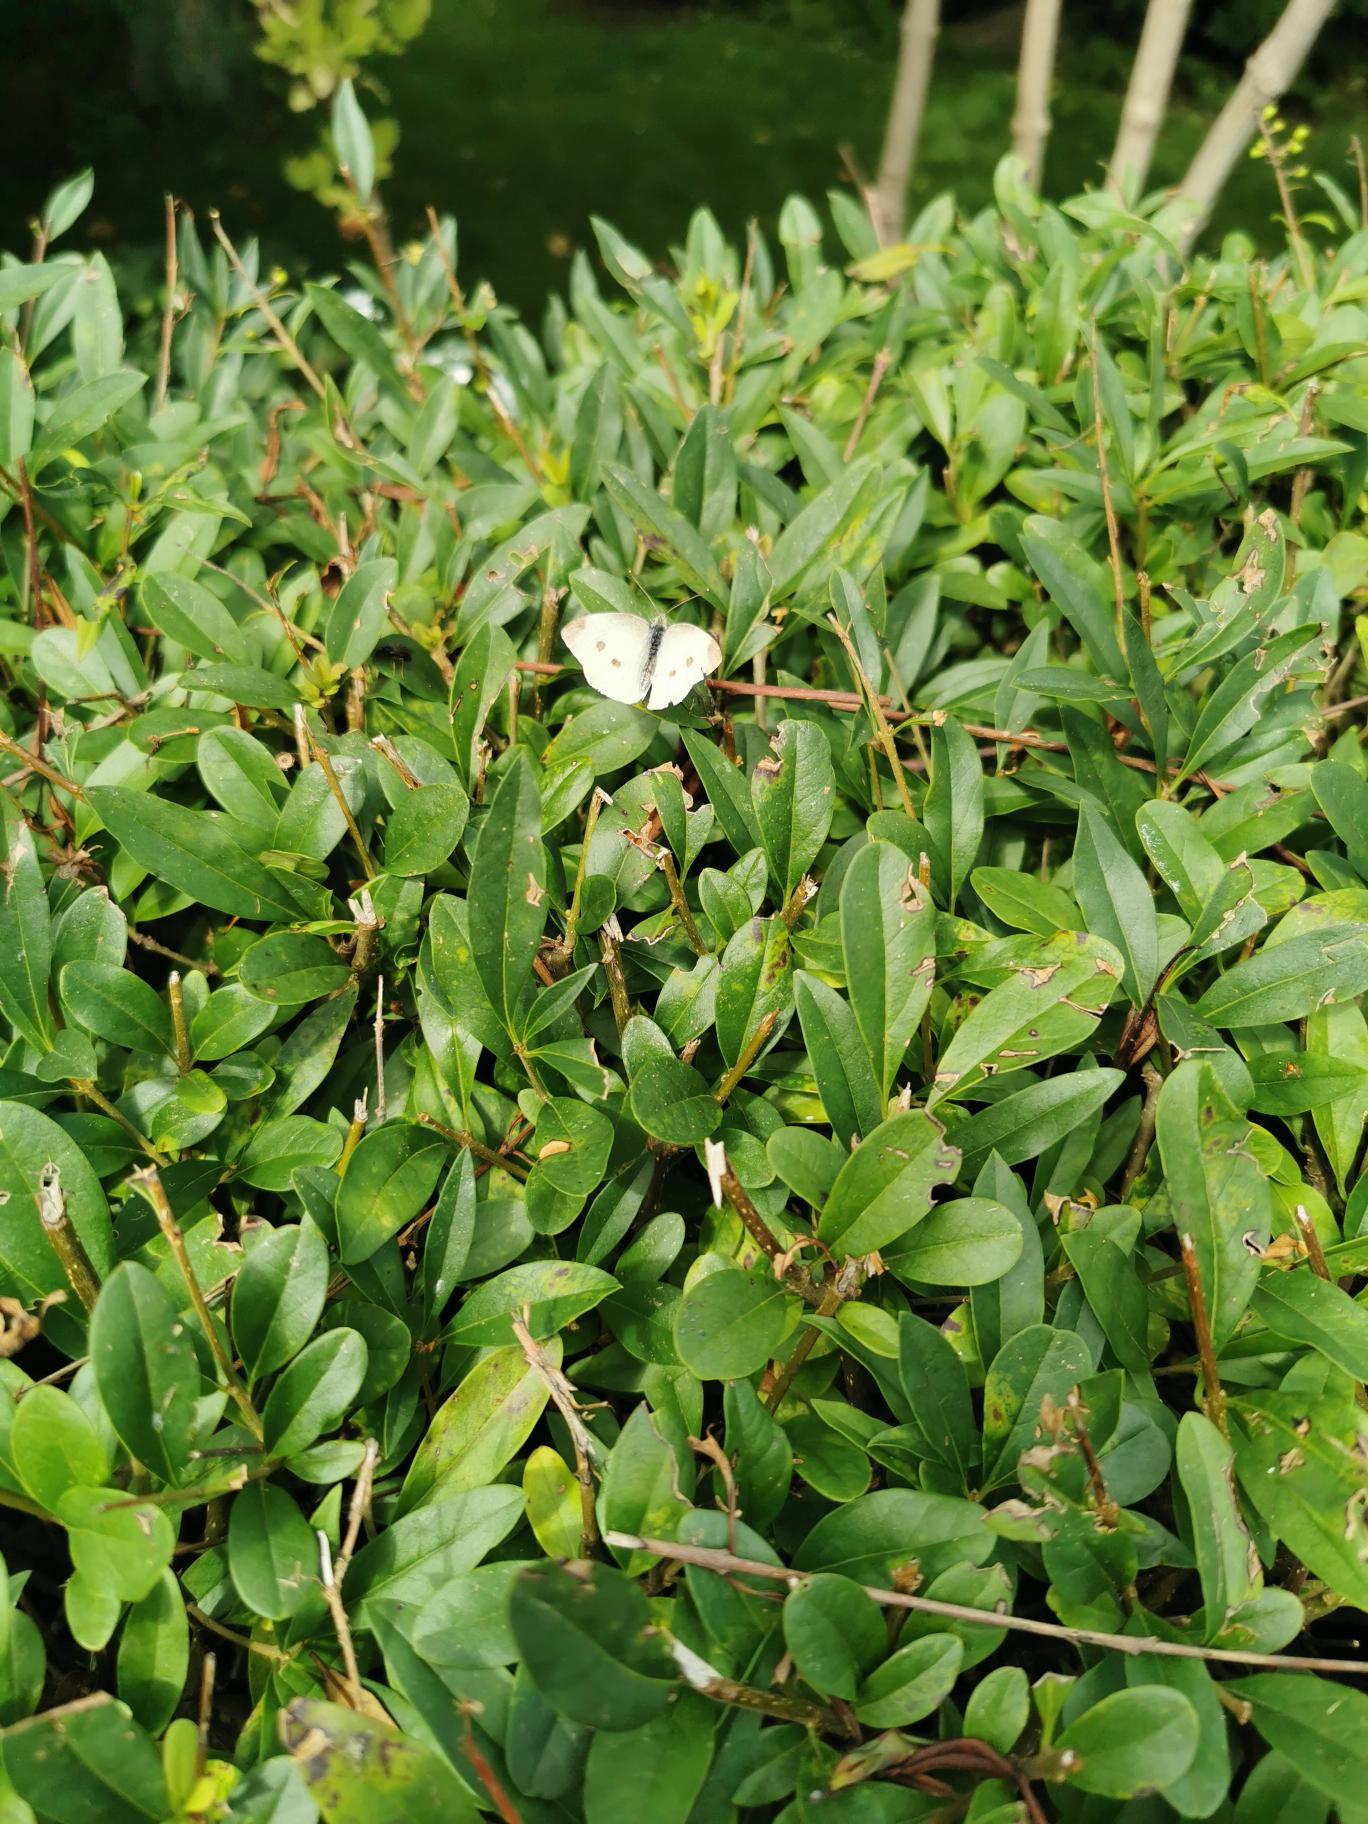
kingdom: Animalia
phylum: Arthropoda
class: Insecta
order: Lepidoptera
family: Pieridae
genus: Pieris
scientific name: Pieris rapae
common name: Lille kålsommerfugl
